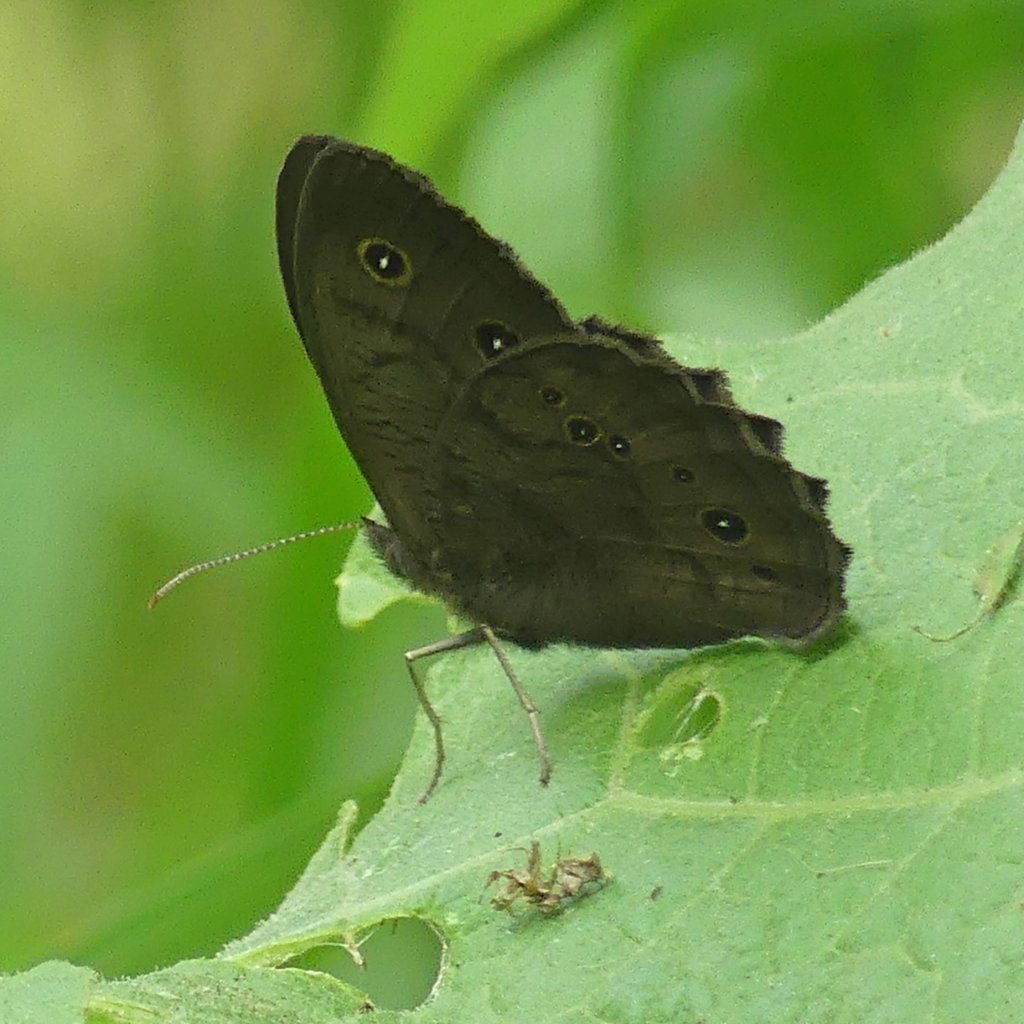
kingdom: Animalia
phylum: Arthropoda
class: Insecta
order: Lepidoptera
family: Nymphalidae
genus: Cercyonis
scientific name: Cercyonis pegala
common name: Common Wood-Nymph
